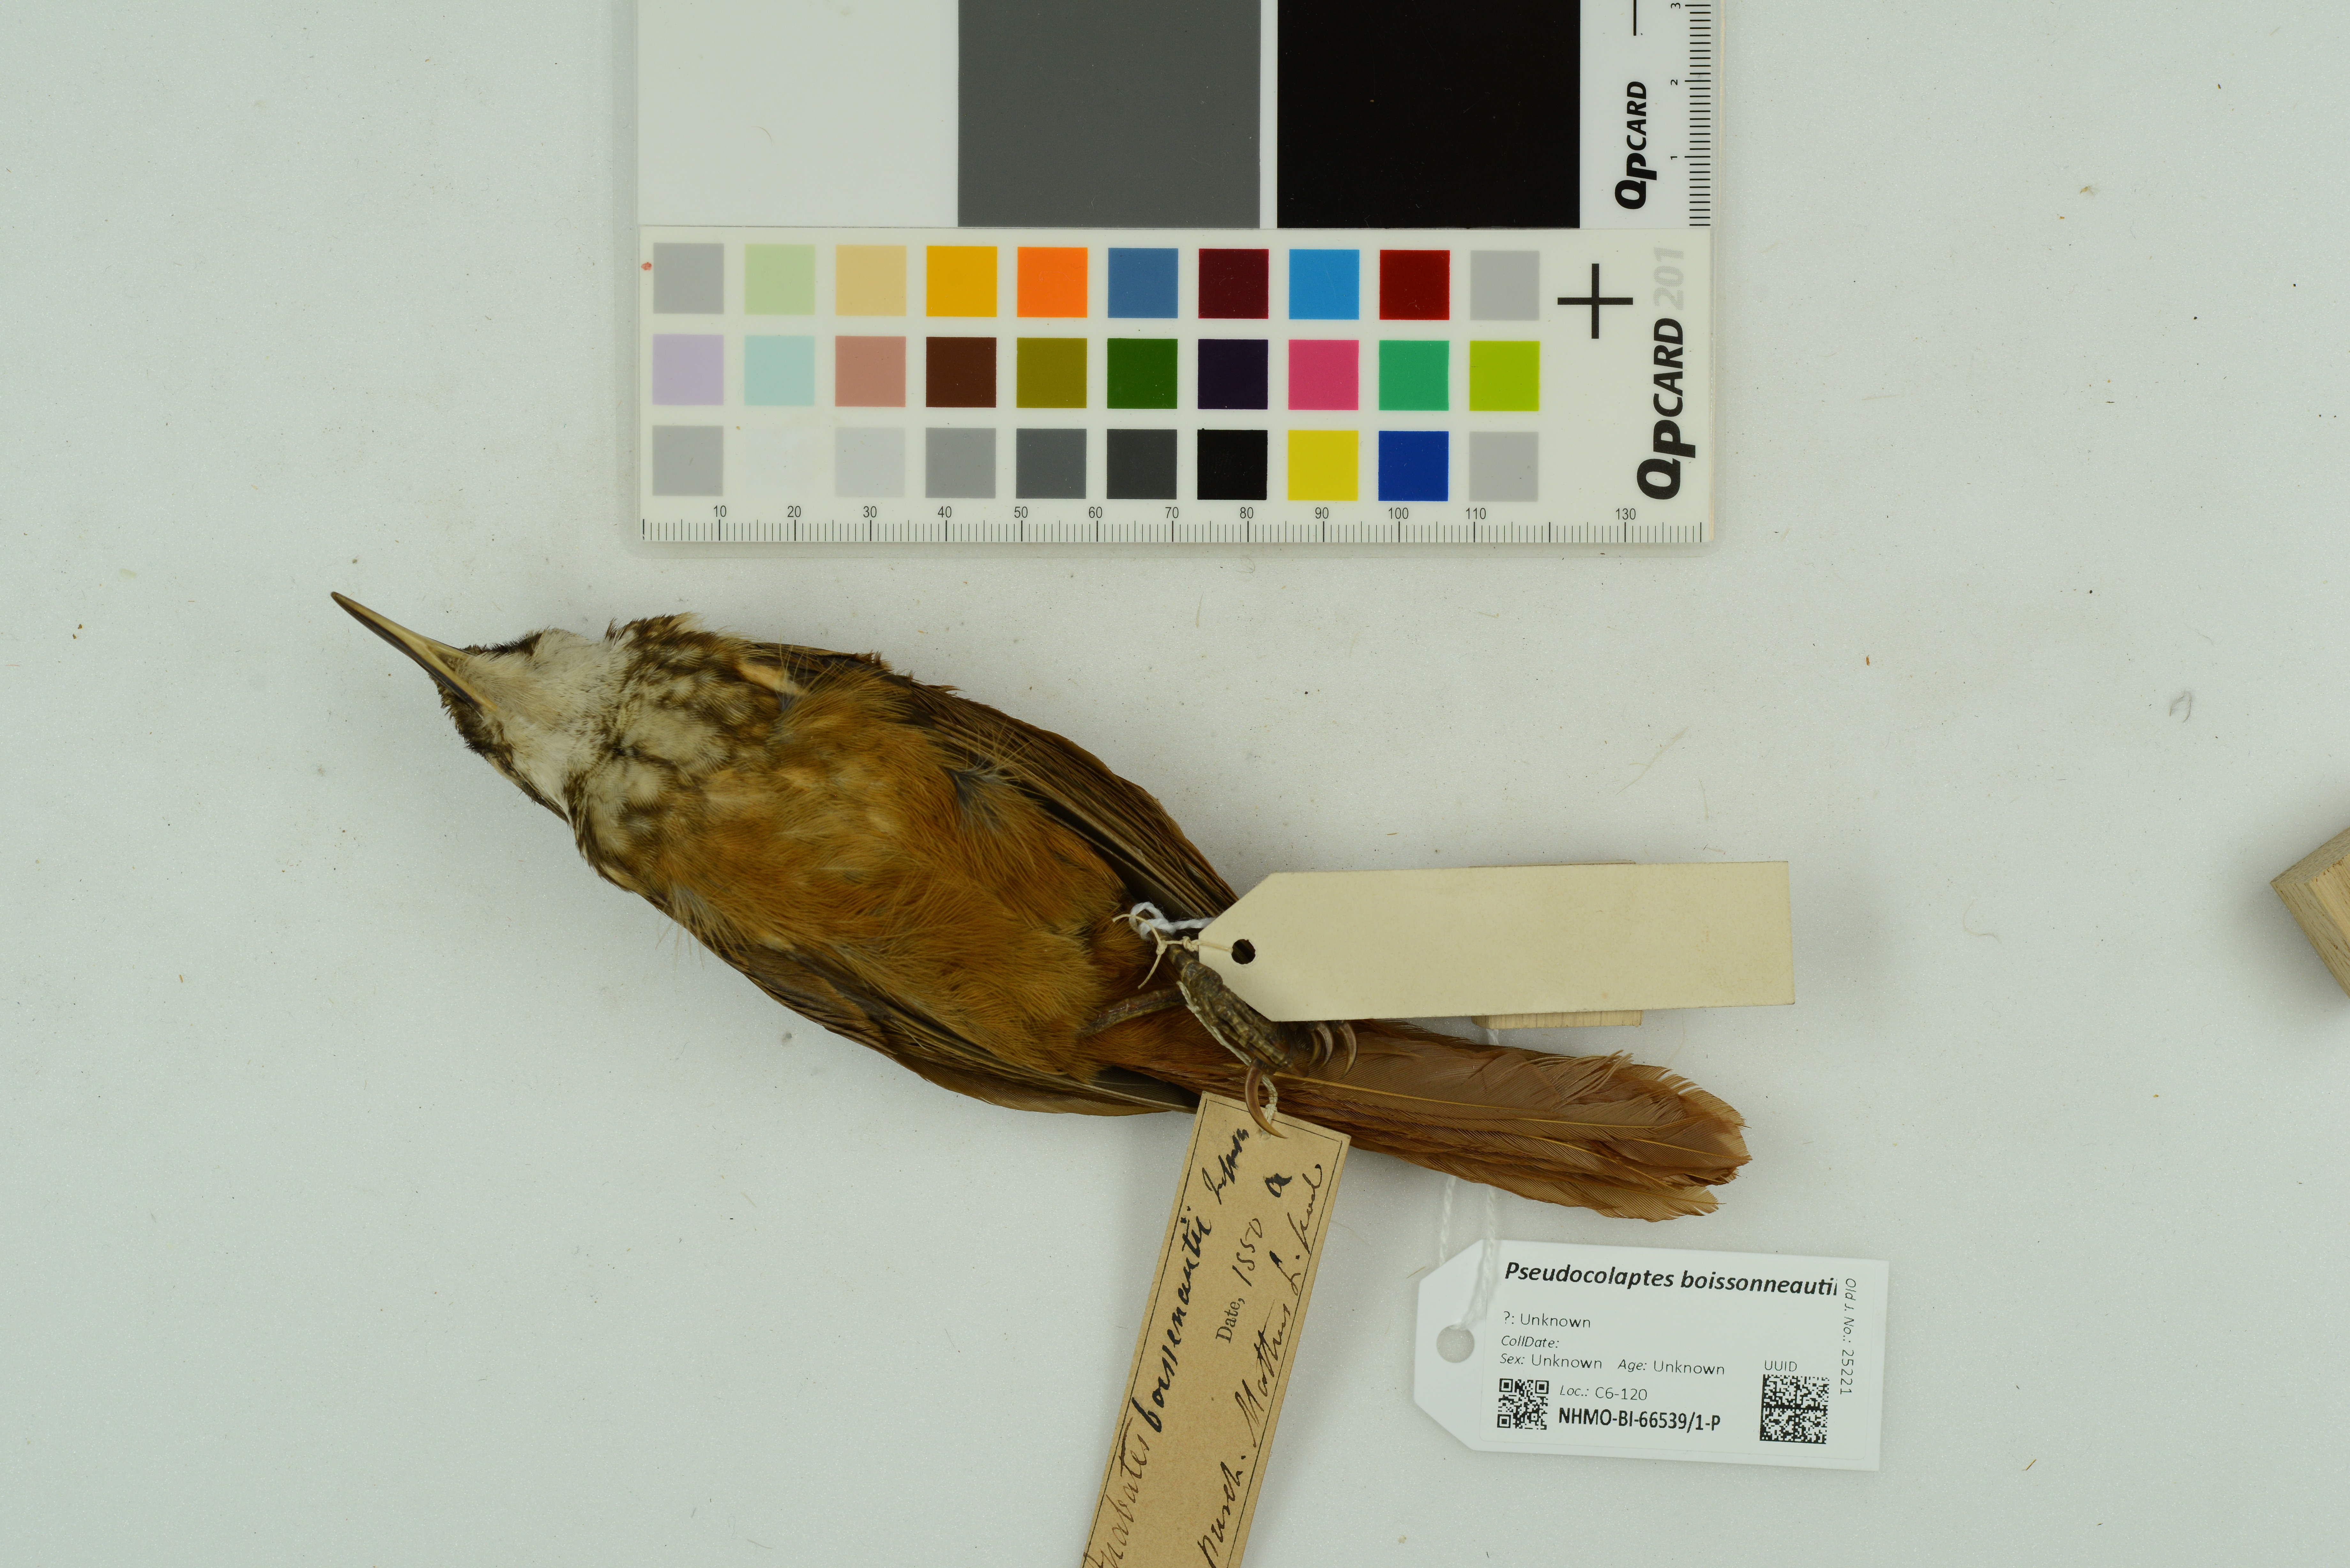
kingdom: Animalia
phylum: Chordata
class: Aves
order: Passeriformes
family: Furnariidae
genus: Pseudocolaptes
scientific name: Pseudocolaptes boissonneautii
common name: Streaked tuftedcheek
